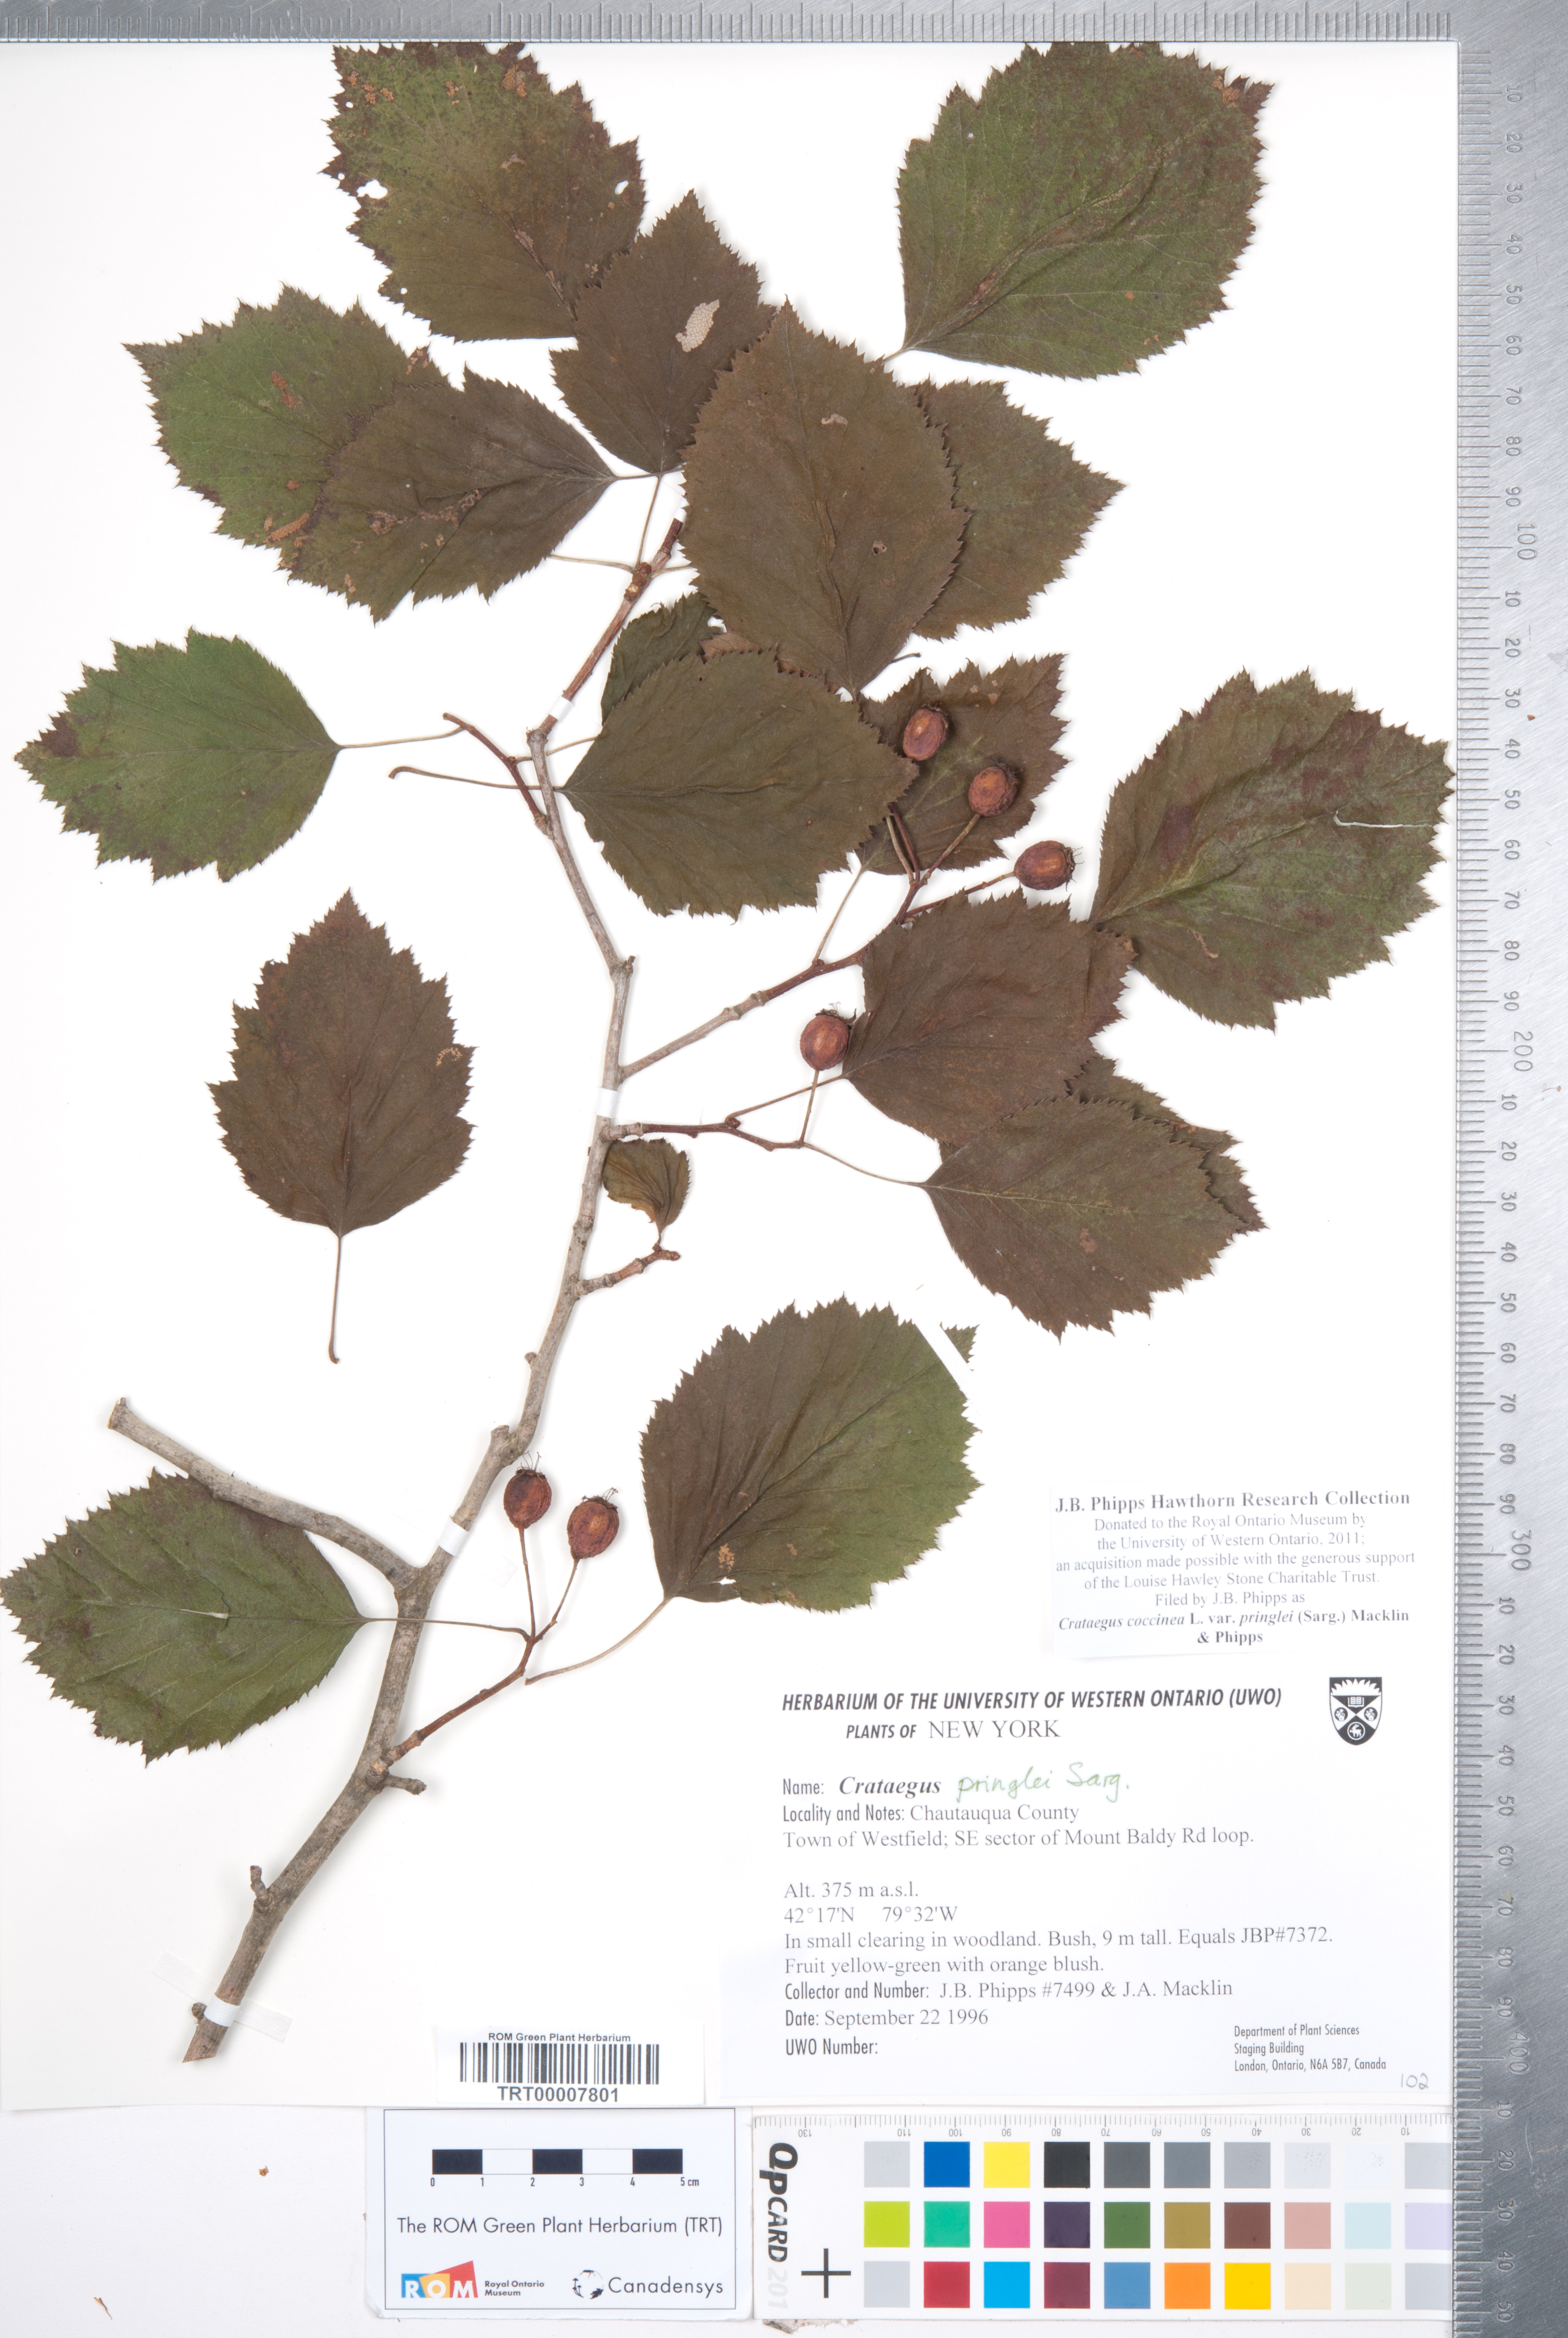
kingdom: Plantae
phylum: Tracheophyta
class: Magnoliopsida
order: Rosales
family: Rosaceae
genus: Crataegus
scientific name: Crataegus coccinea
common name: Scarlet hawthorn
